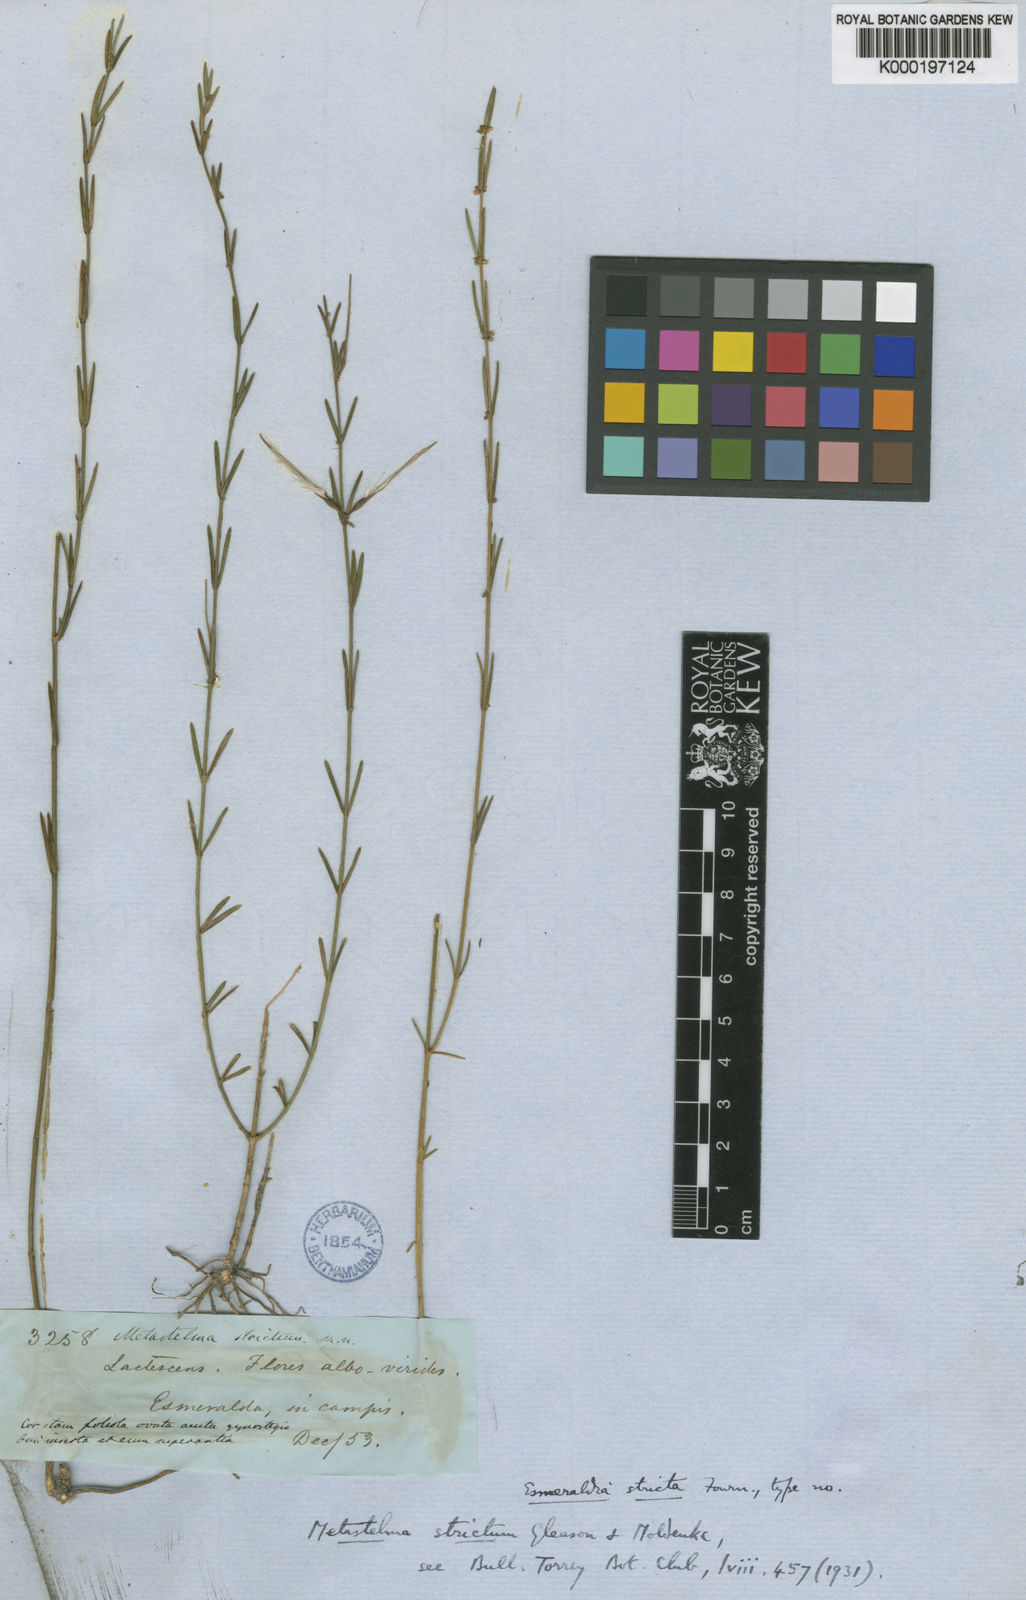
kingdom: Plantae
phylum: Tracheophyta
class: Magnoliopsida
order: Gentianales
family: Apocynaceae
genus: Tassadia
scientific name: Tassadia stricta
